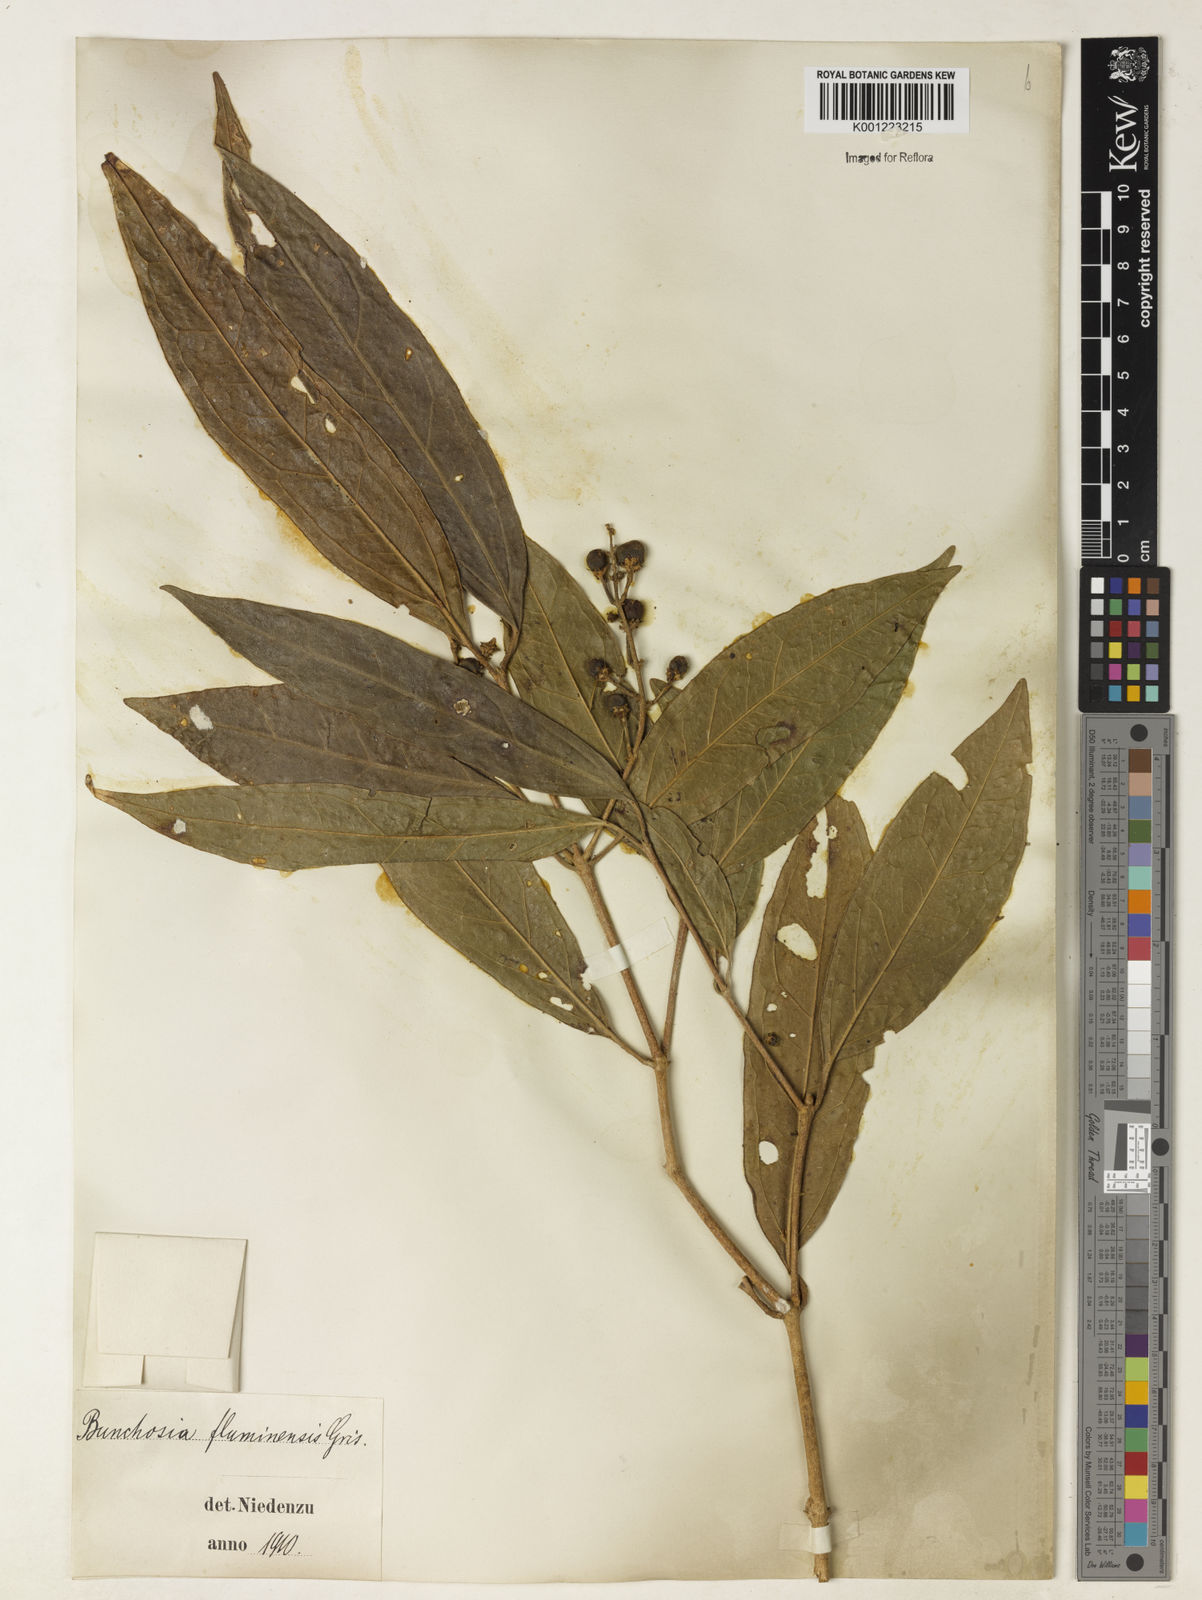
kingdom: Plantae
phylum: Tracheophyta
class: Magnoliopsida
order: Malpighiales
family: Malpighiaceae
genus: Bunchosia
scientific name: Bunchosia fluminensis
